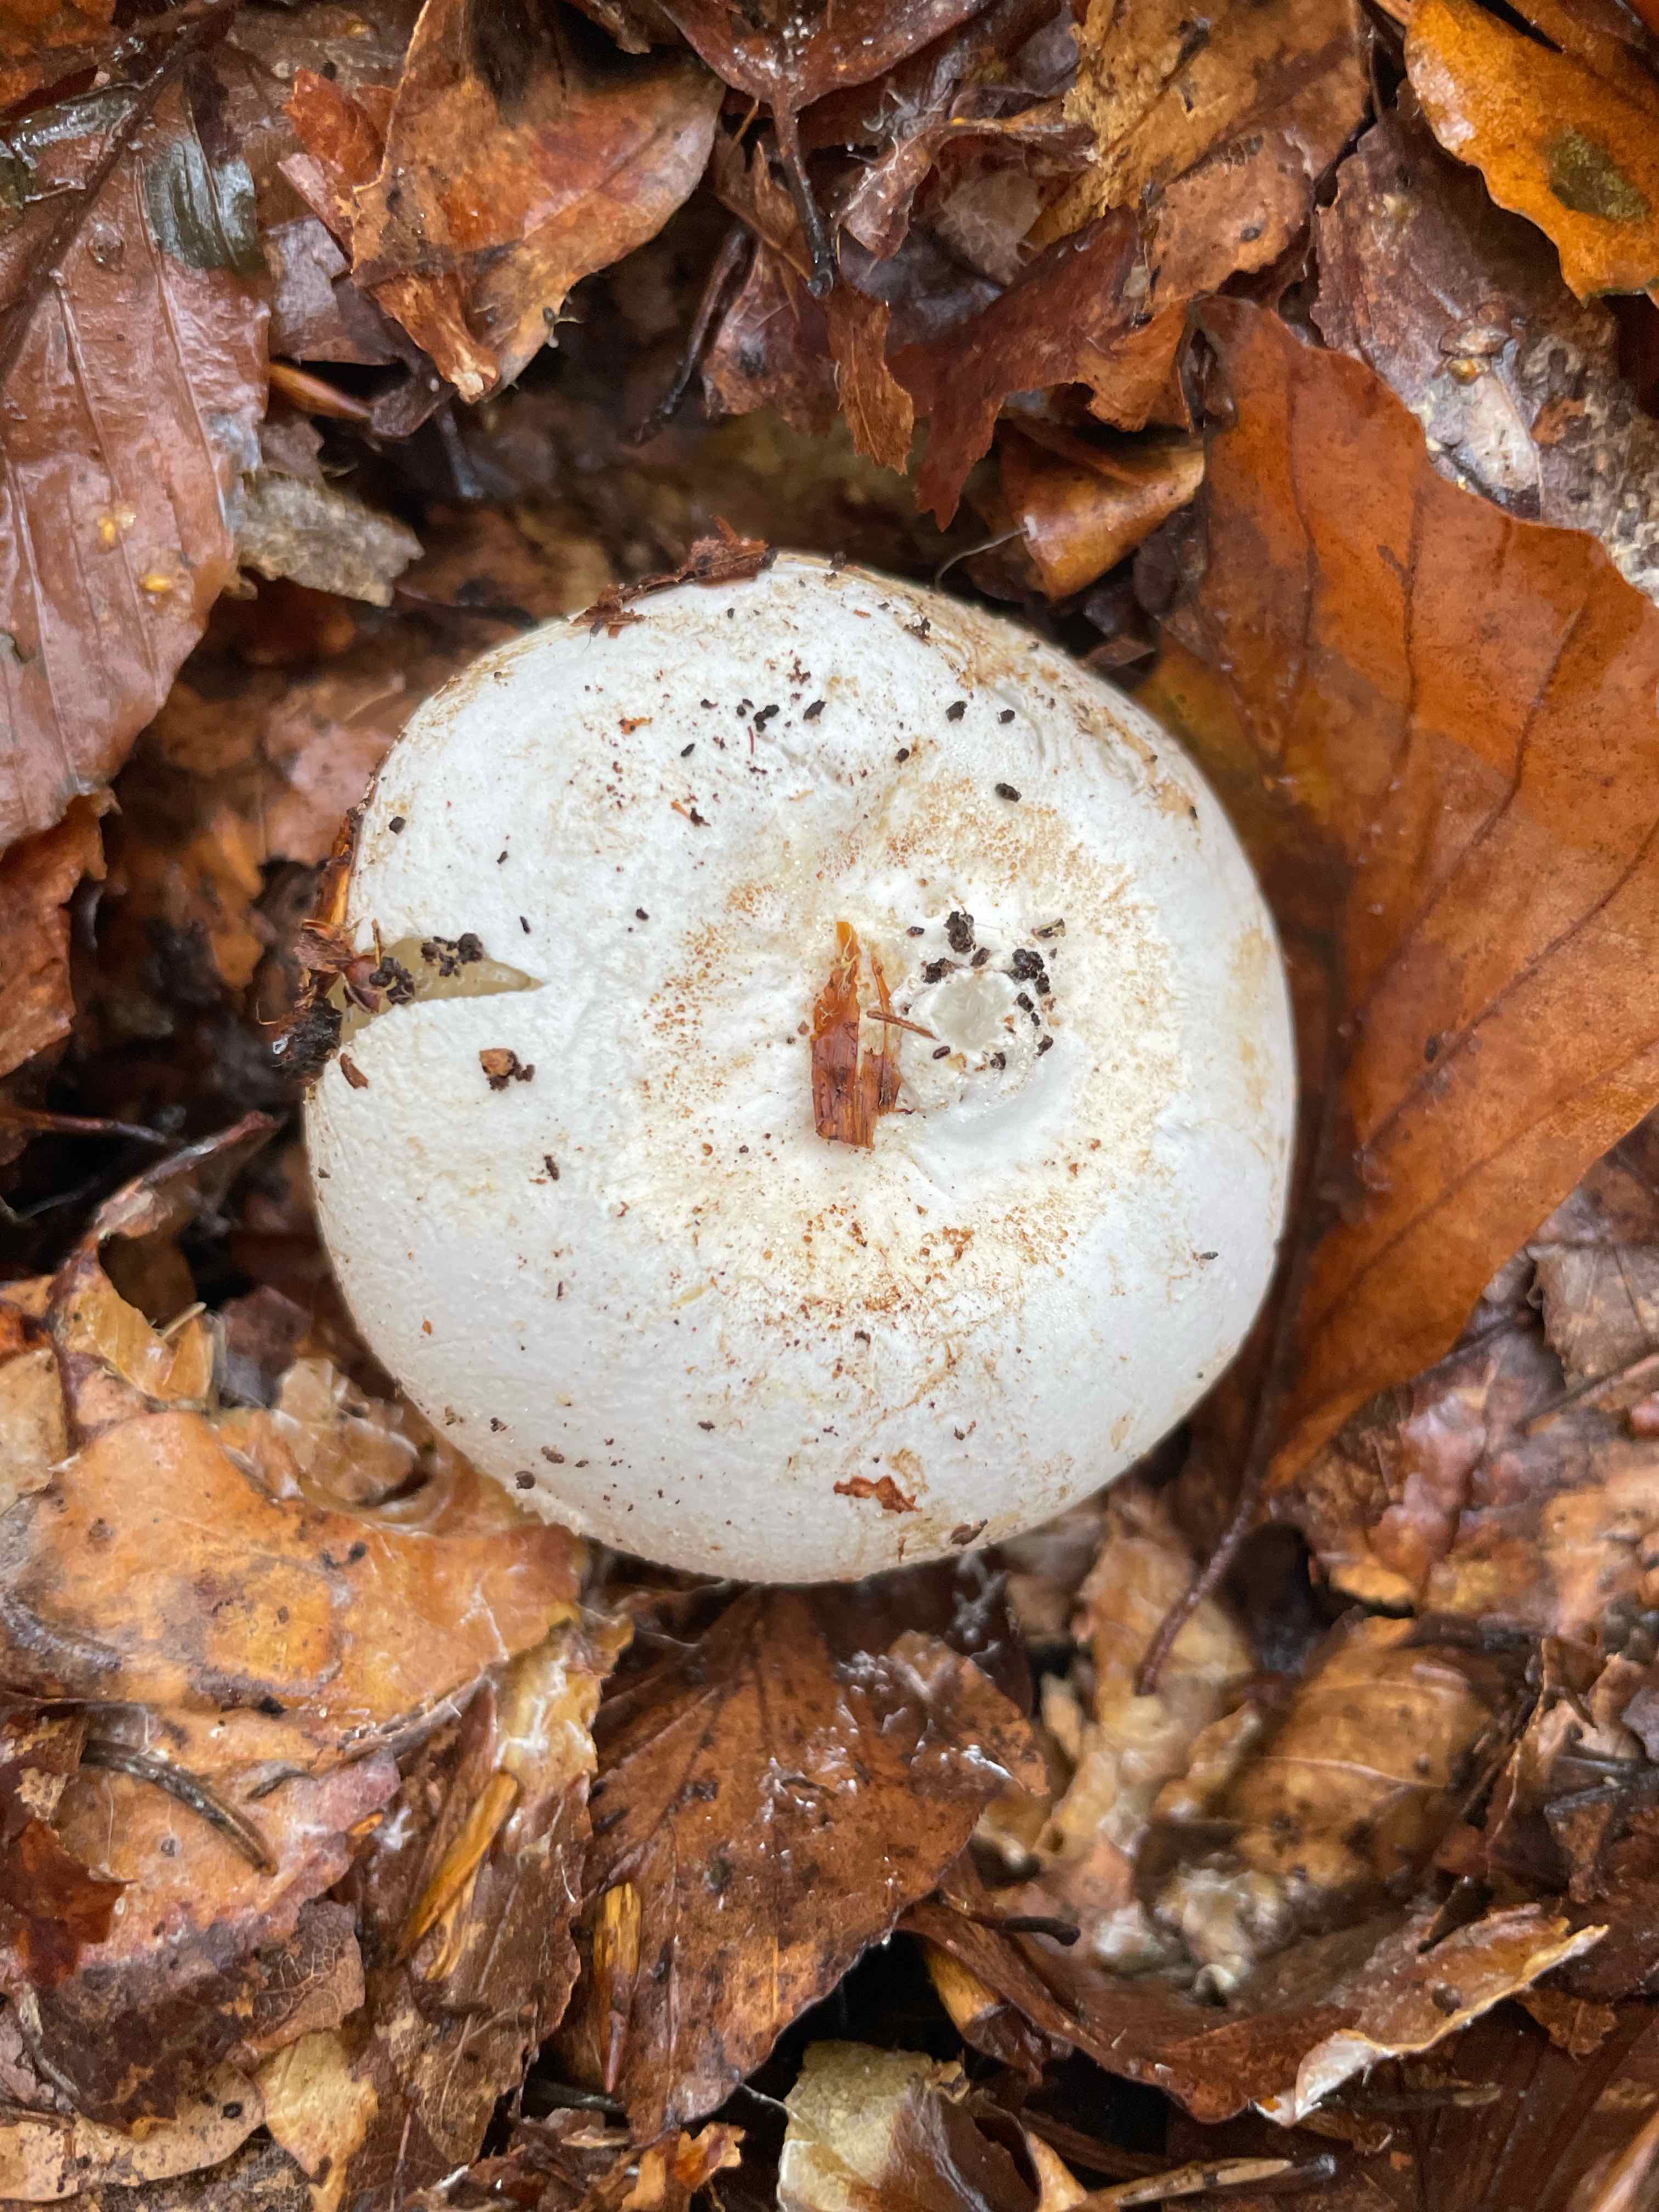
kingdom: Fungi
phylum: Basidiomycota
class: Agaricomycetes
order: Phallales
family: Phallaceae
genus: Phallus
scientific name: Phallus impudicus
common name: almindelig stinksvamp
